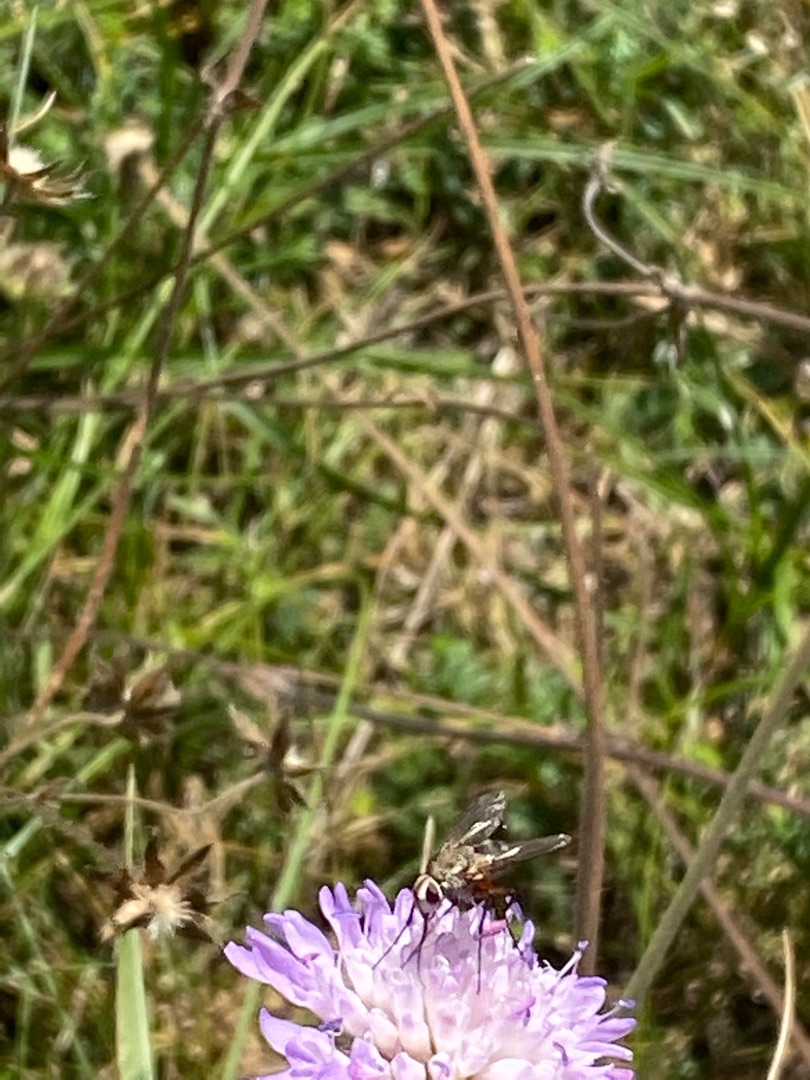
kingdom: Animalia
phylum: Arthropoda
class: Insecta
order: Diptera
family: Tachinidae
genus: Prosena
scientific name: Prosena siberita
